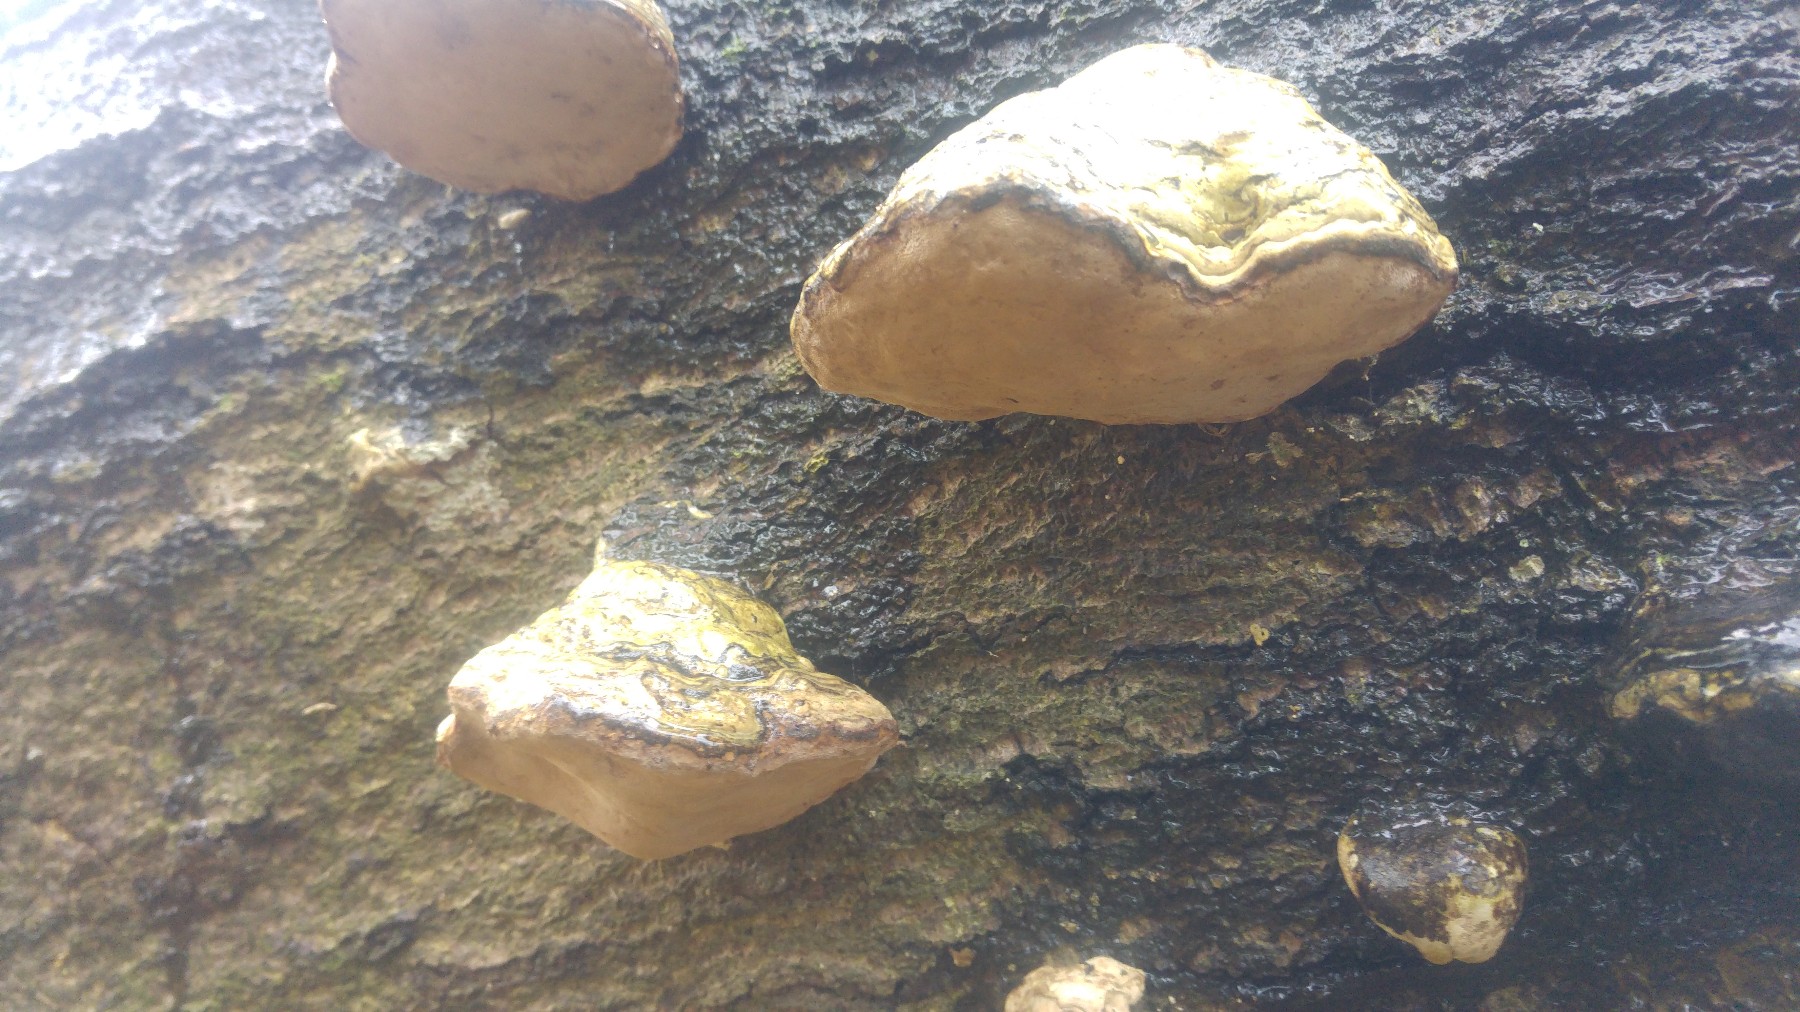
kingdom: Fungi
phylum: Basidiomycota
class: Agaricomycetes
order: Polyporales
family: Polyporaceae
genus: Fomes
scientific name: Fomes fomentarius
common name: tøndersvamp
